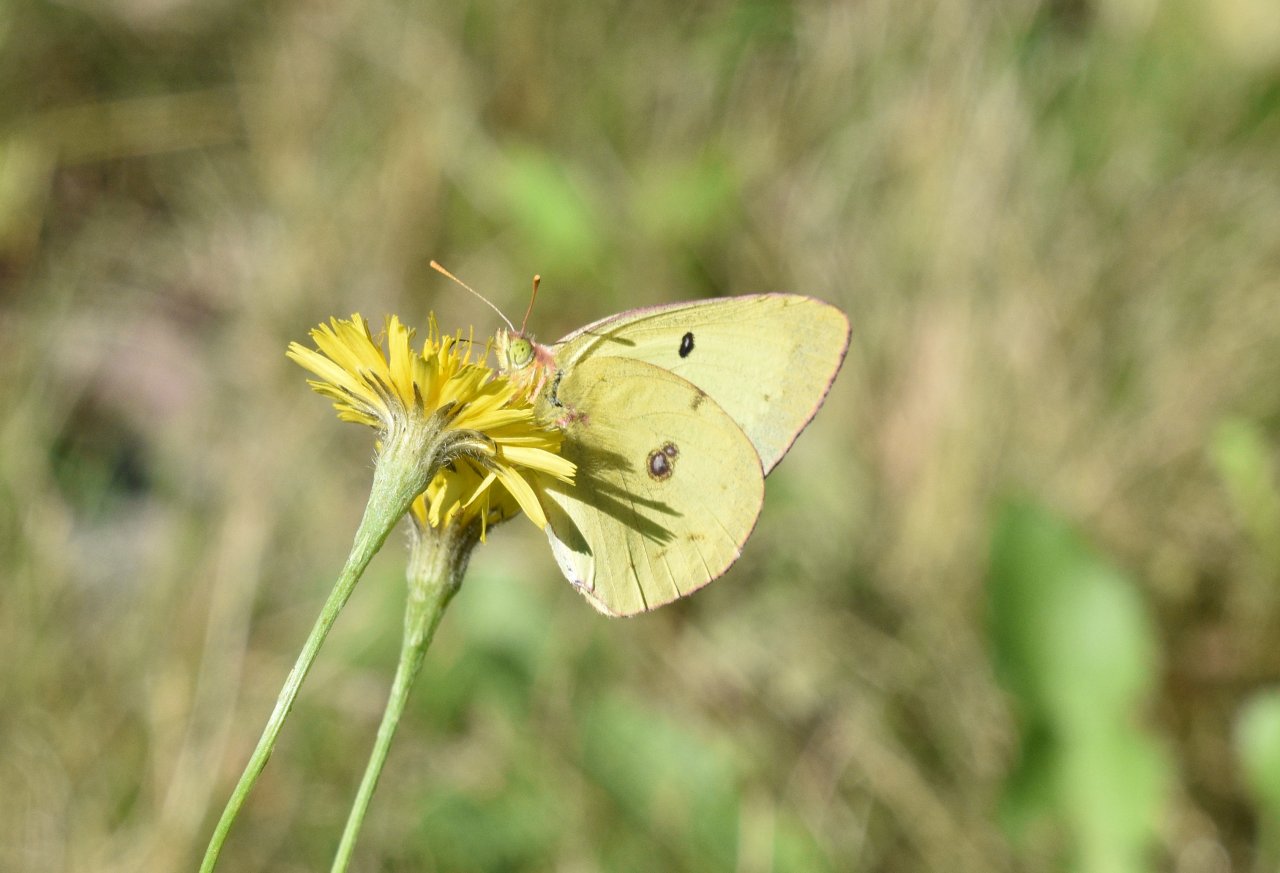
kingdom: Animalia
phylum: Arthropoda
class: Insecta
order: Lepidoptera
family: Pieridae
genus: Colias
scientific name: Colias philodice
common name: Clouded Sulphur
